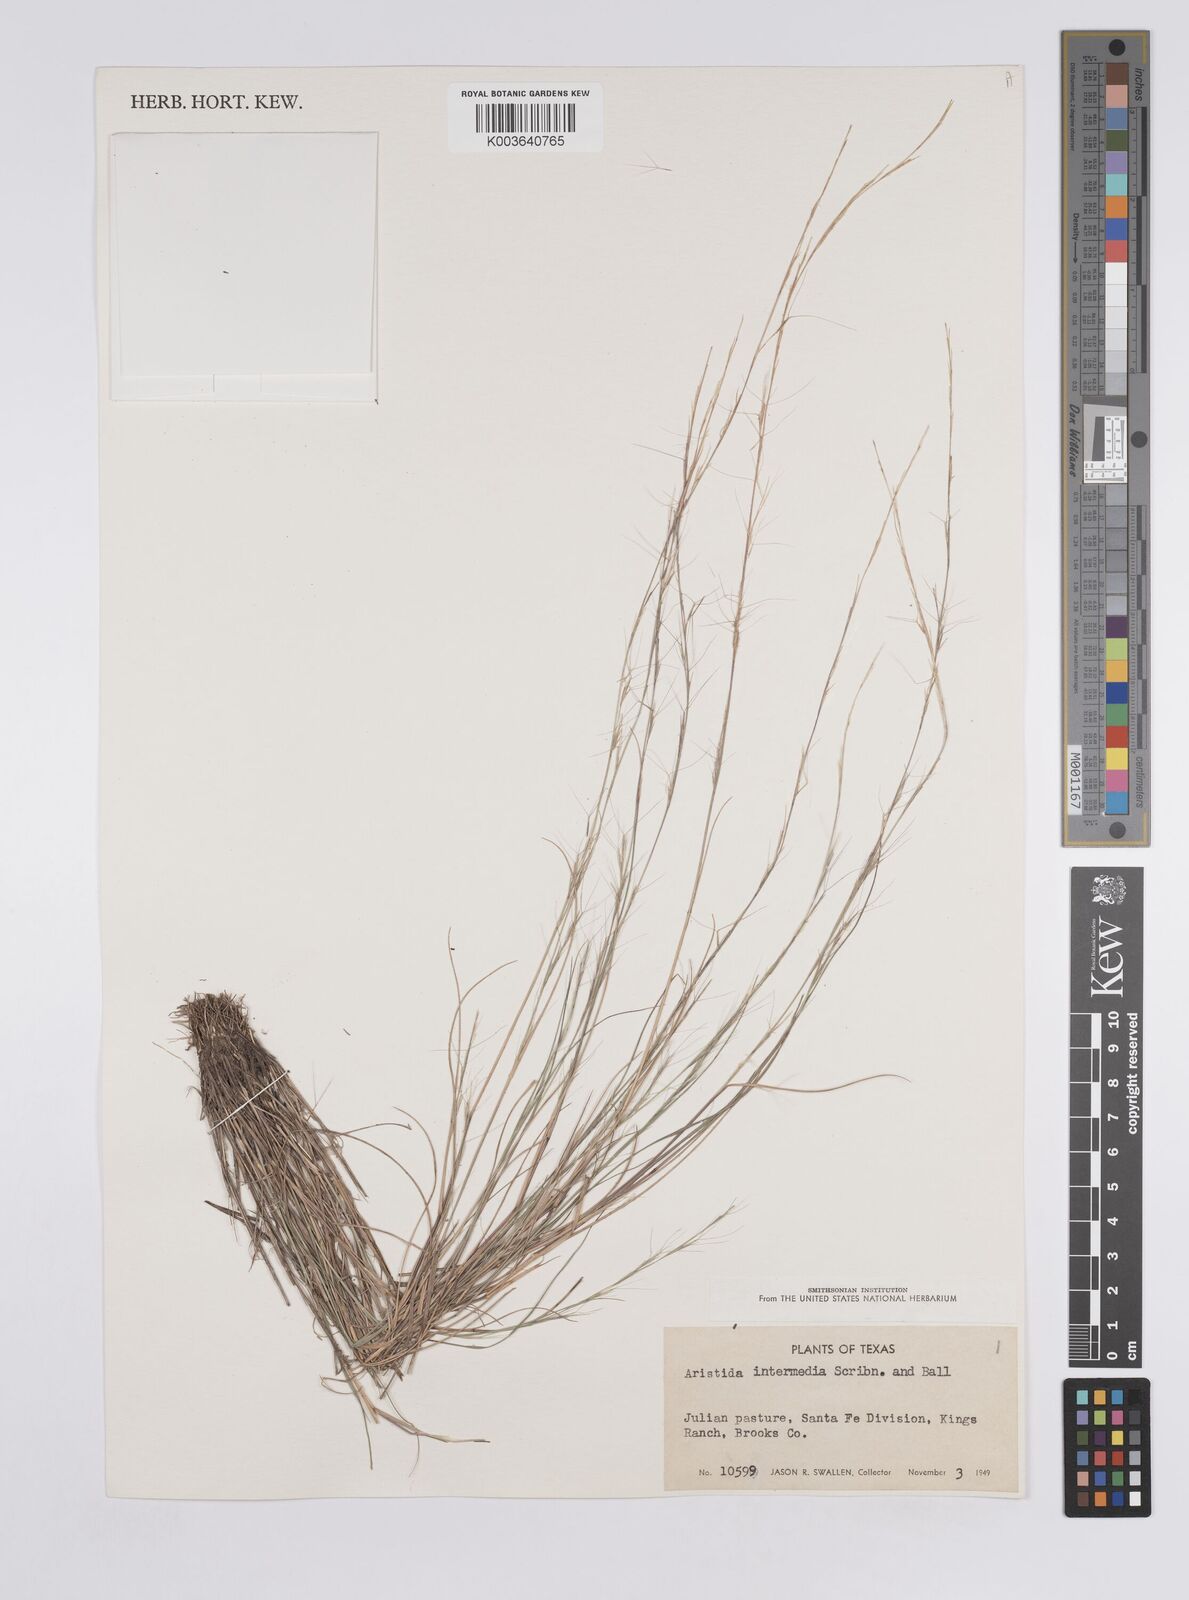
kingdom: Plantae
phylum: Tracheophyta
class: Liliopsida
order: Poales
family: Poaceae
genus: Aristida
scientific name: Aristida adscensionis
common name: Sixweeks threeawn
